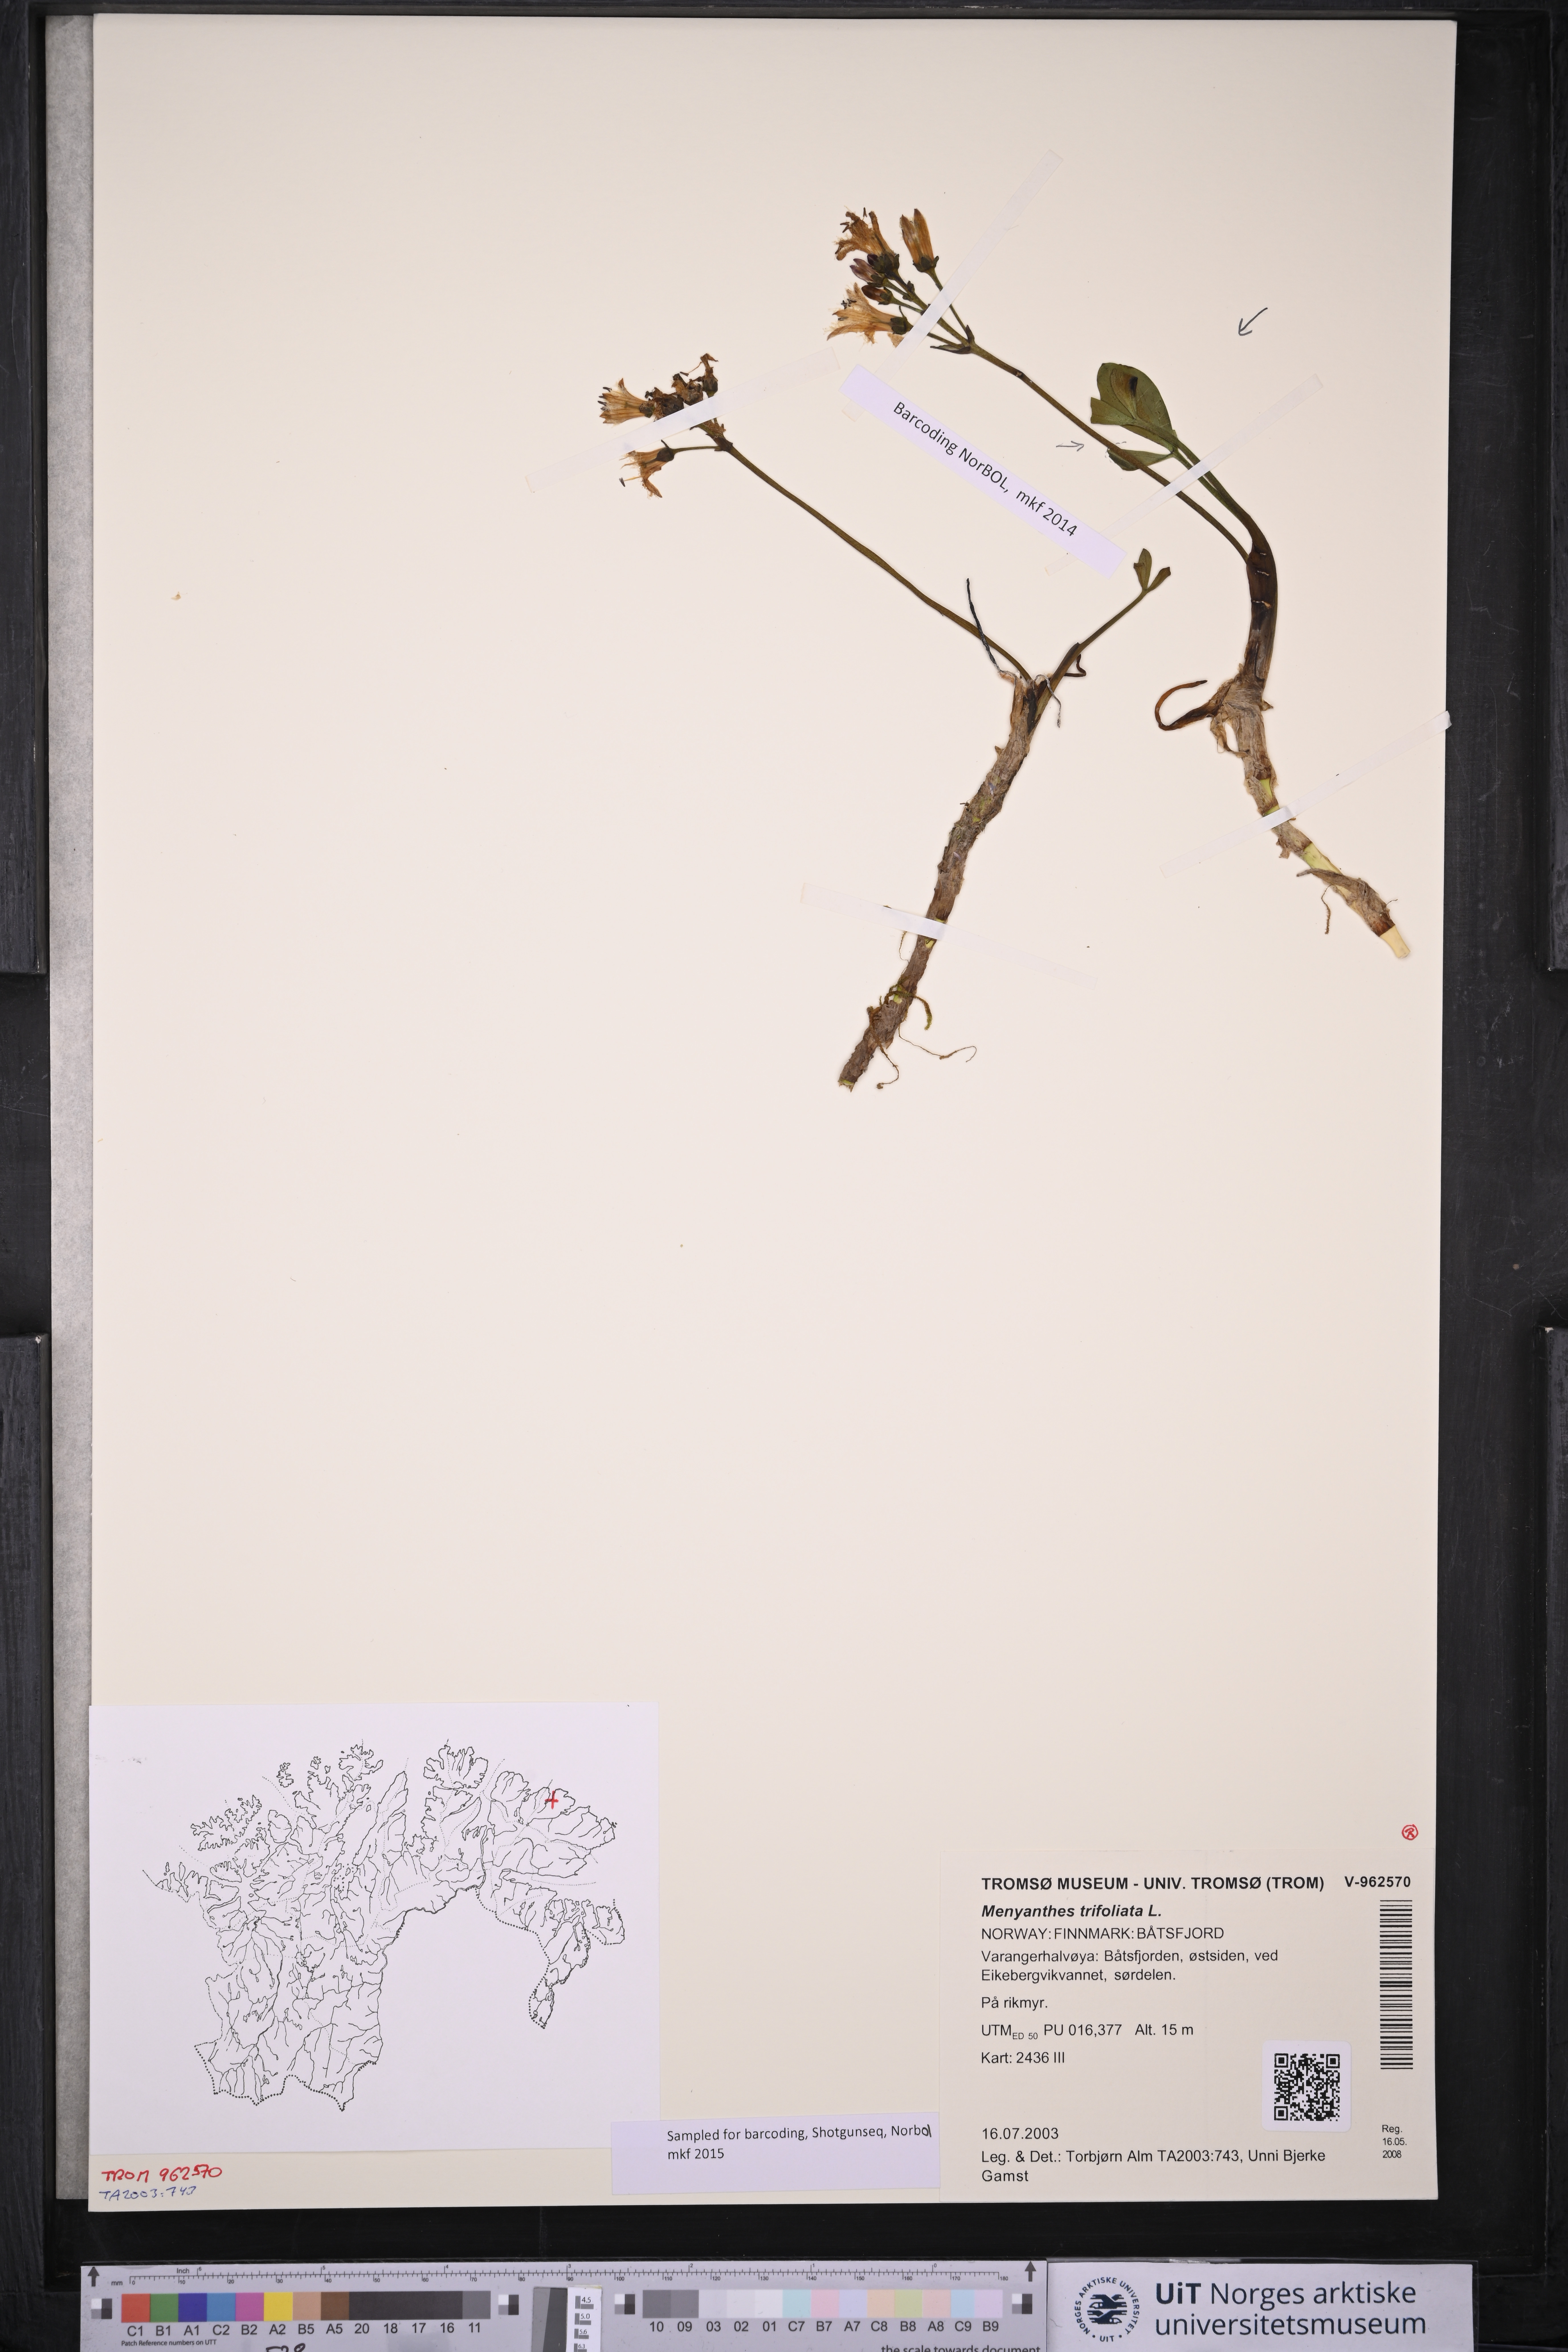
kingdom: Plantae
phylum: Tracheophyta
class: Magnoliopsida
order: Asterales
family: Menyanthaceae
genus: Menyanthes
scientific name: Menyanthes trifoliata
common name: Bogbean
